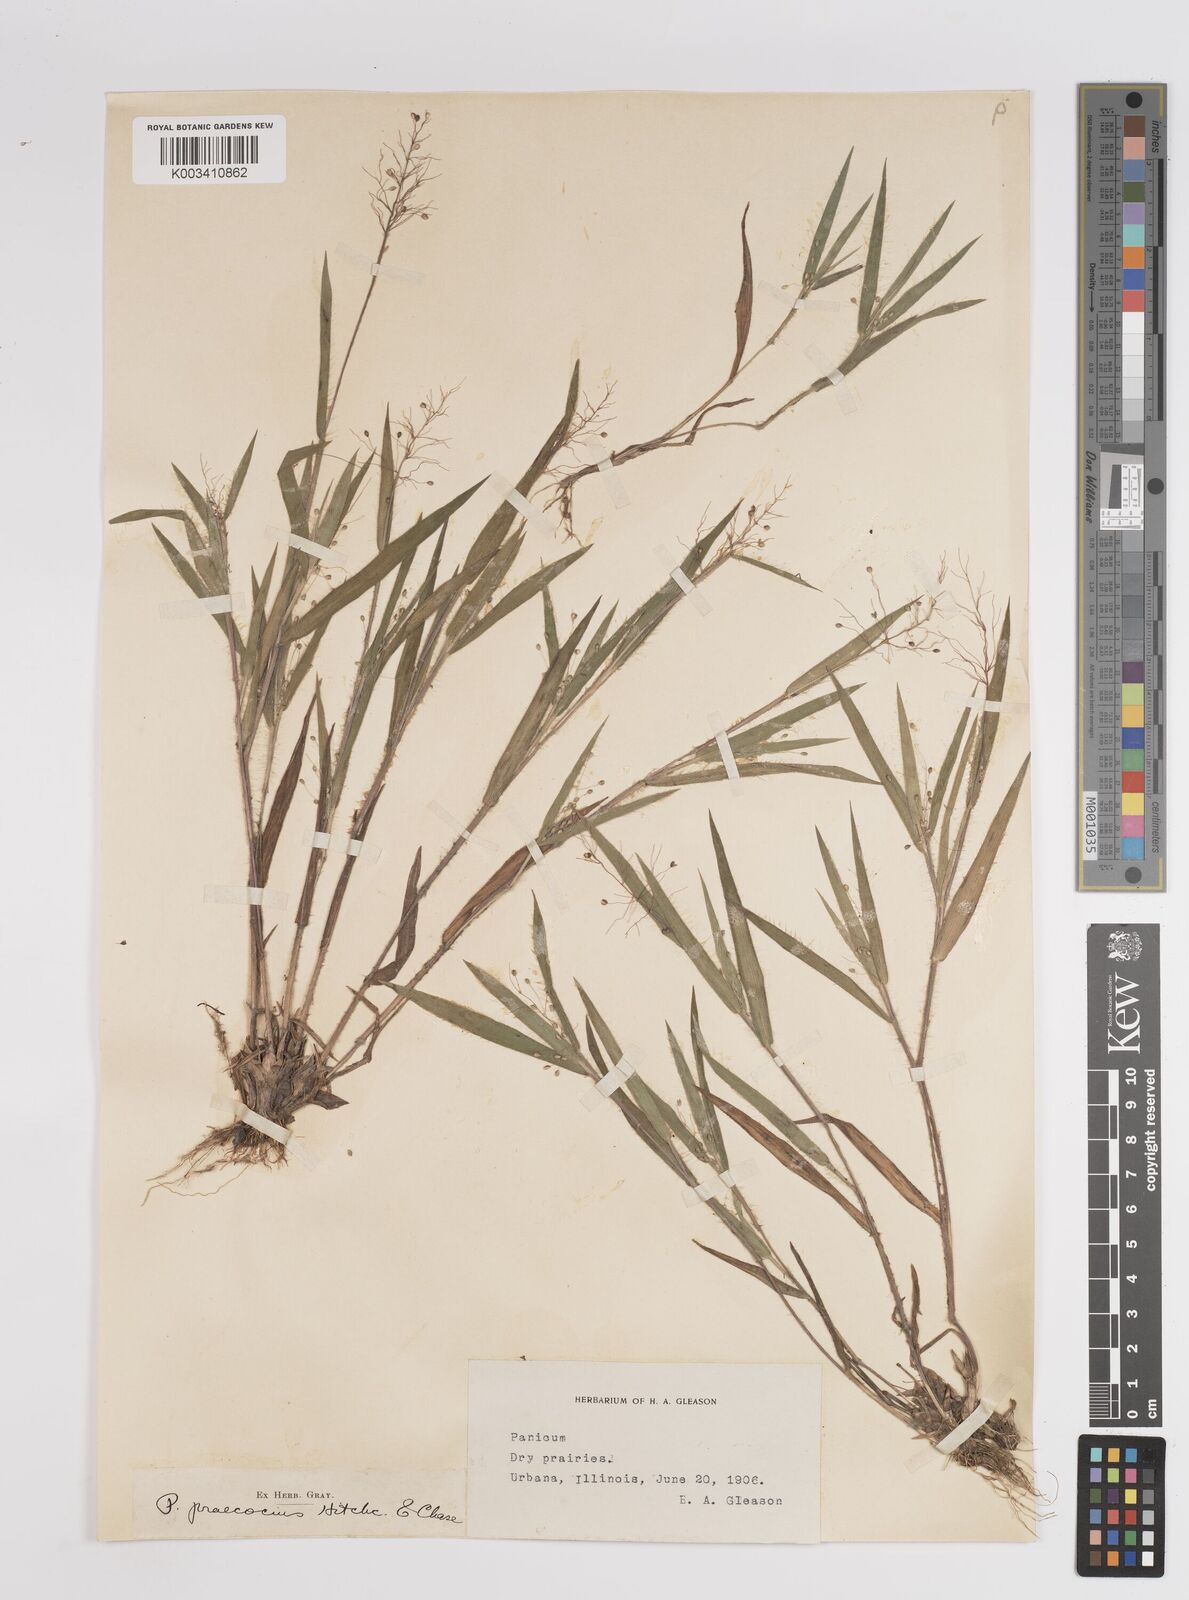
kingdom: Plantae
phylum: Tracheophyta
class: Liliopsida
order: Poales
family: Poaceae
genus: Dichanthelium
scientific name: Dichanthelium praecocius
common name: Early-branching panicgrass
